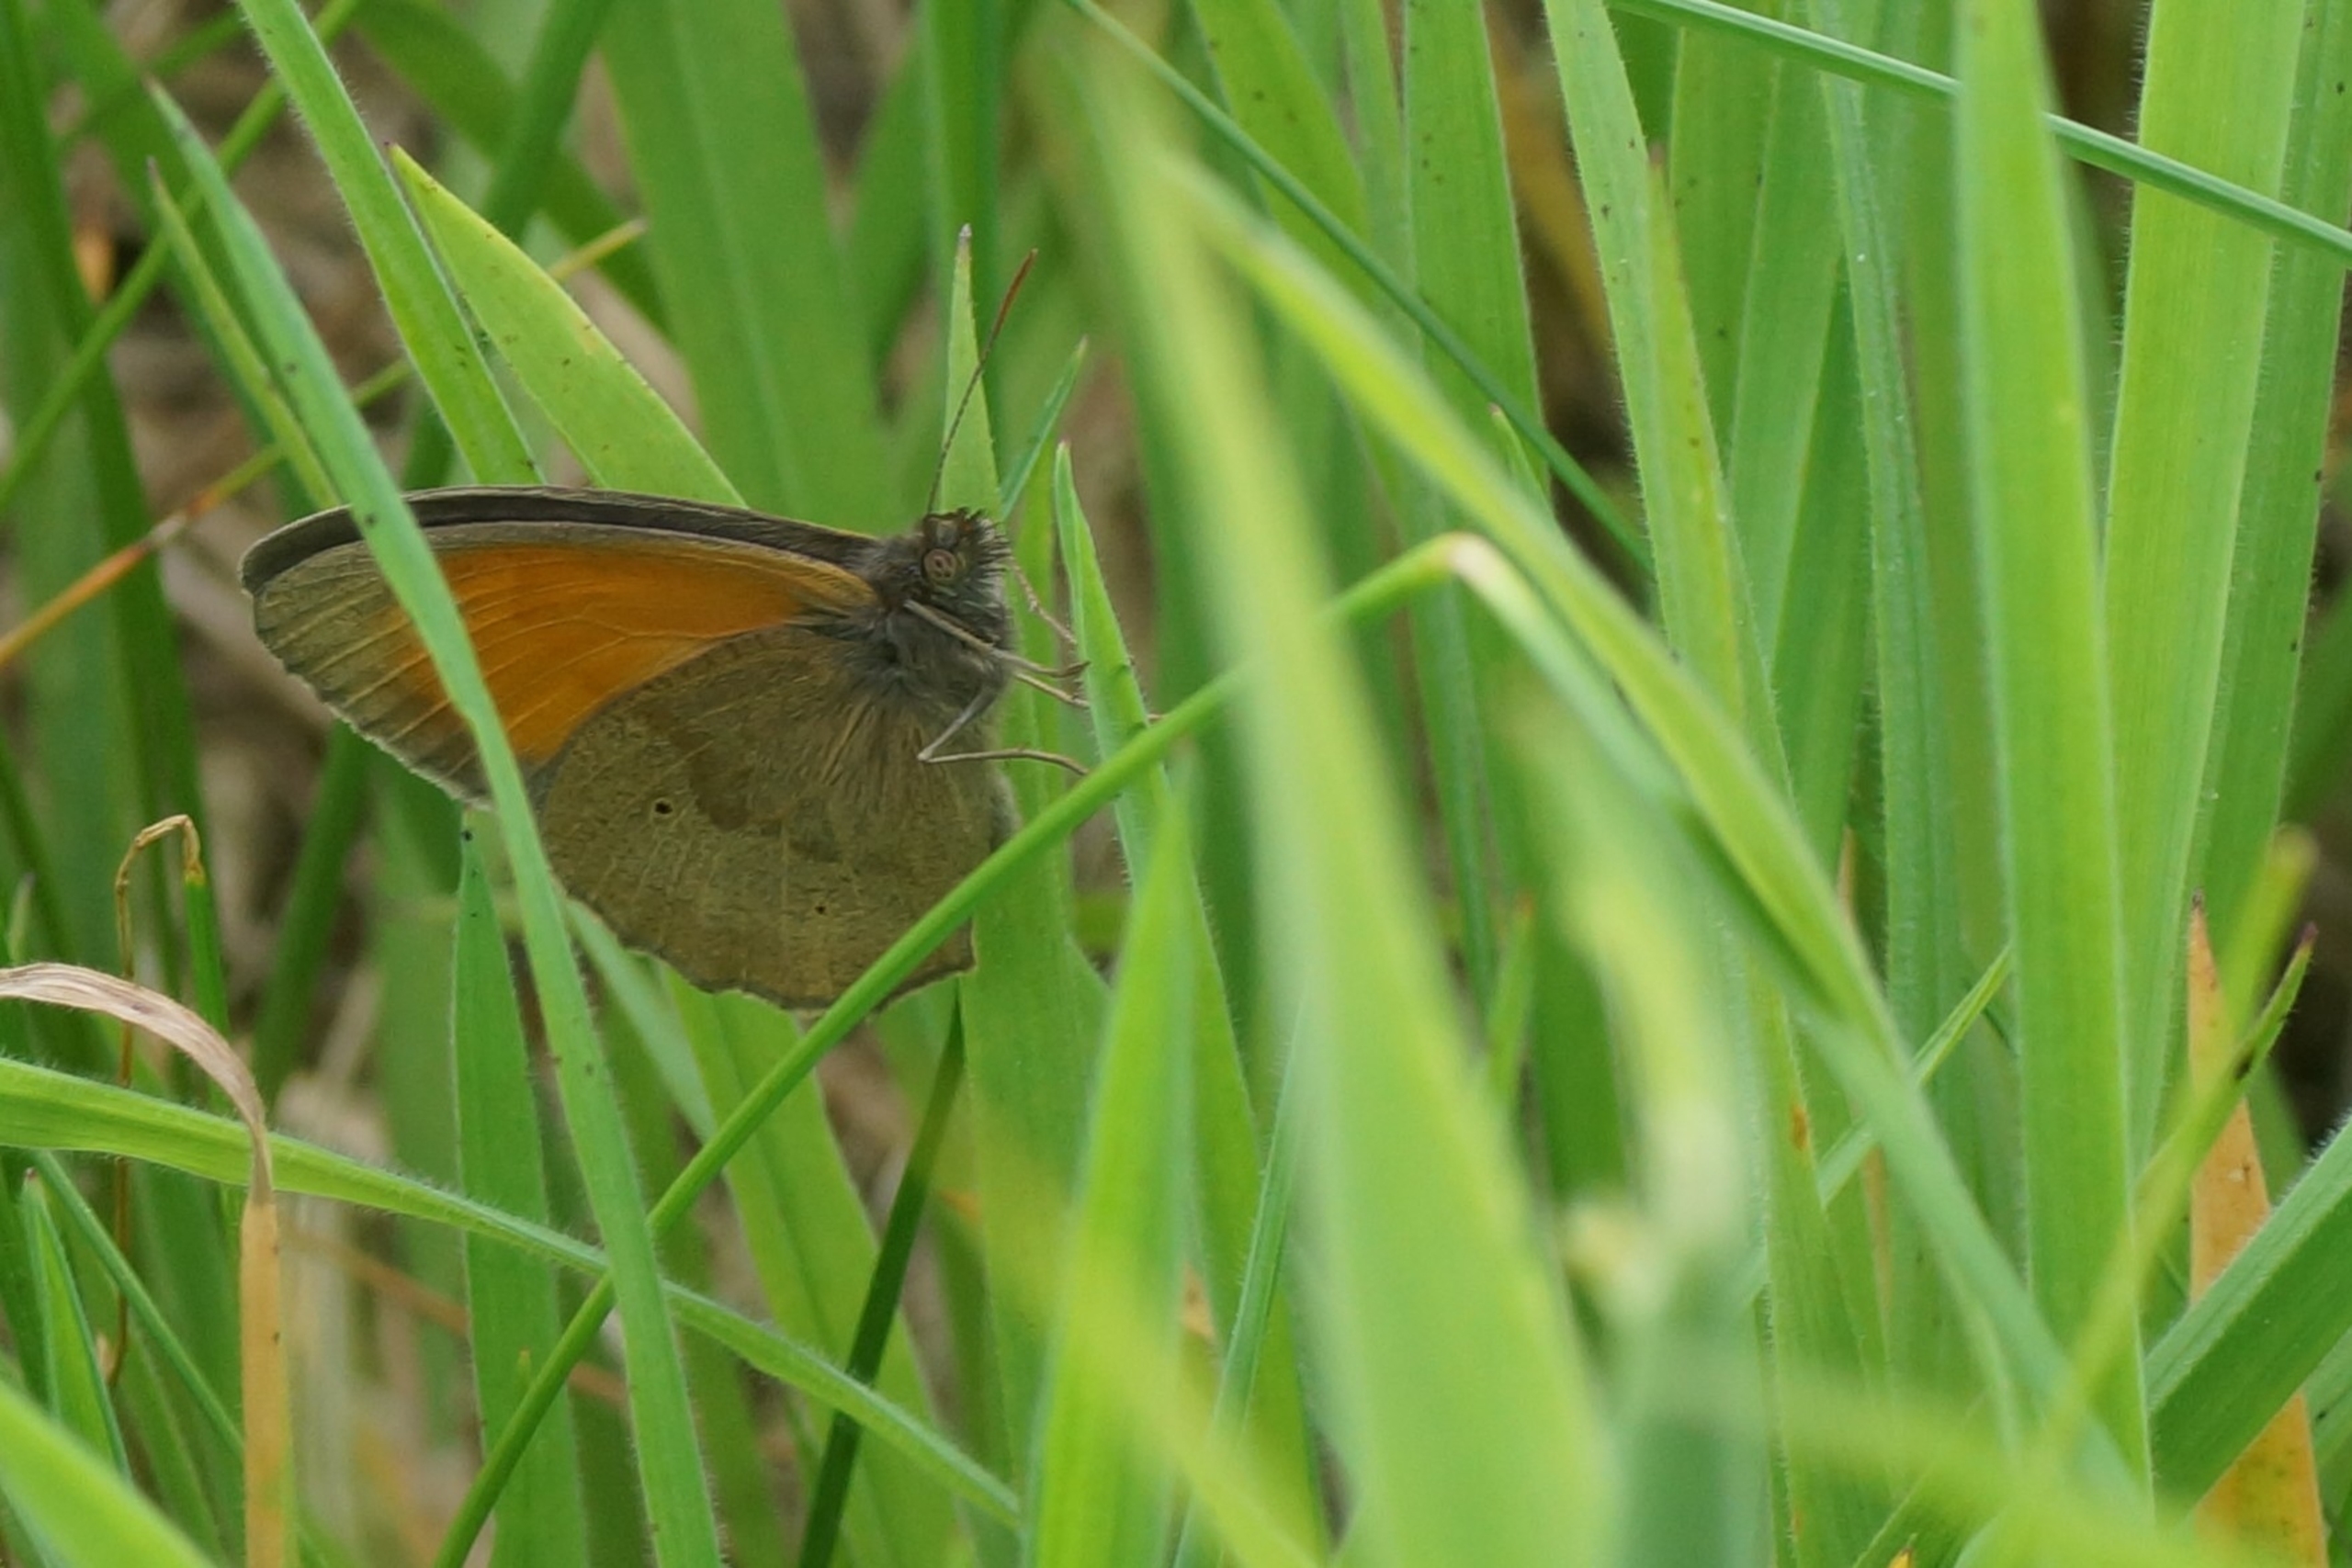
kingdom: Animalia
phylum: Arthropoda
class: Insecta
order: Lepidoptera
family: Nymphalidae
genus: Maniola
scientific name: Maniola jurtina
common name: Græsrandøje
